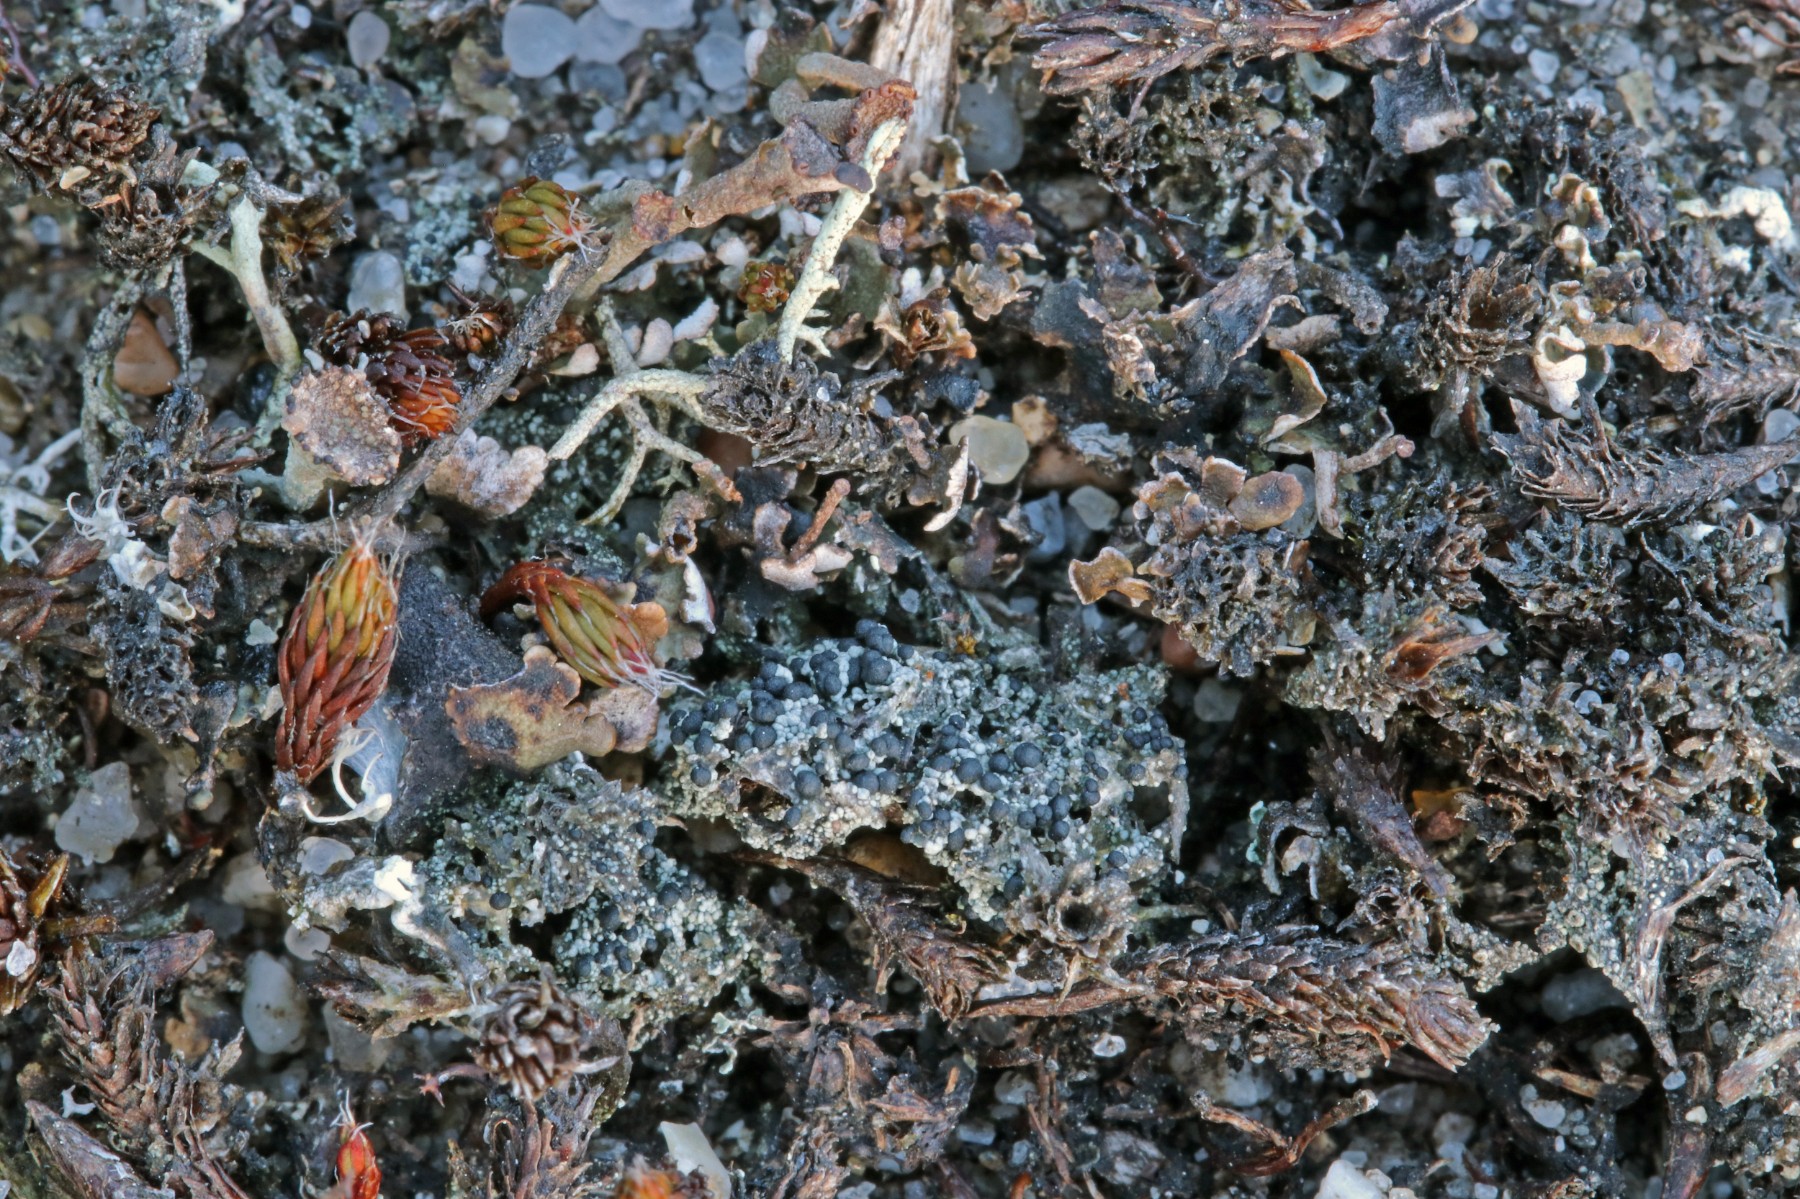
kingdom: Fungi
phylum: Ascomycota
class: Lecanoromycetes
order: Lecanorales
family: Byssolomataceae
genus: Micarea
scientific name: Micarea lignaria
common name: tørve-knaplav
